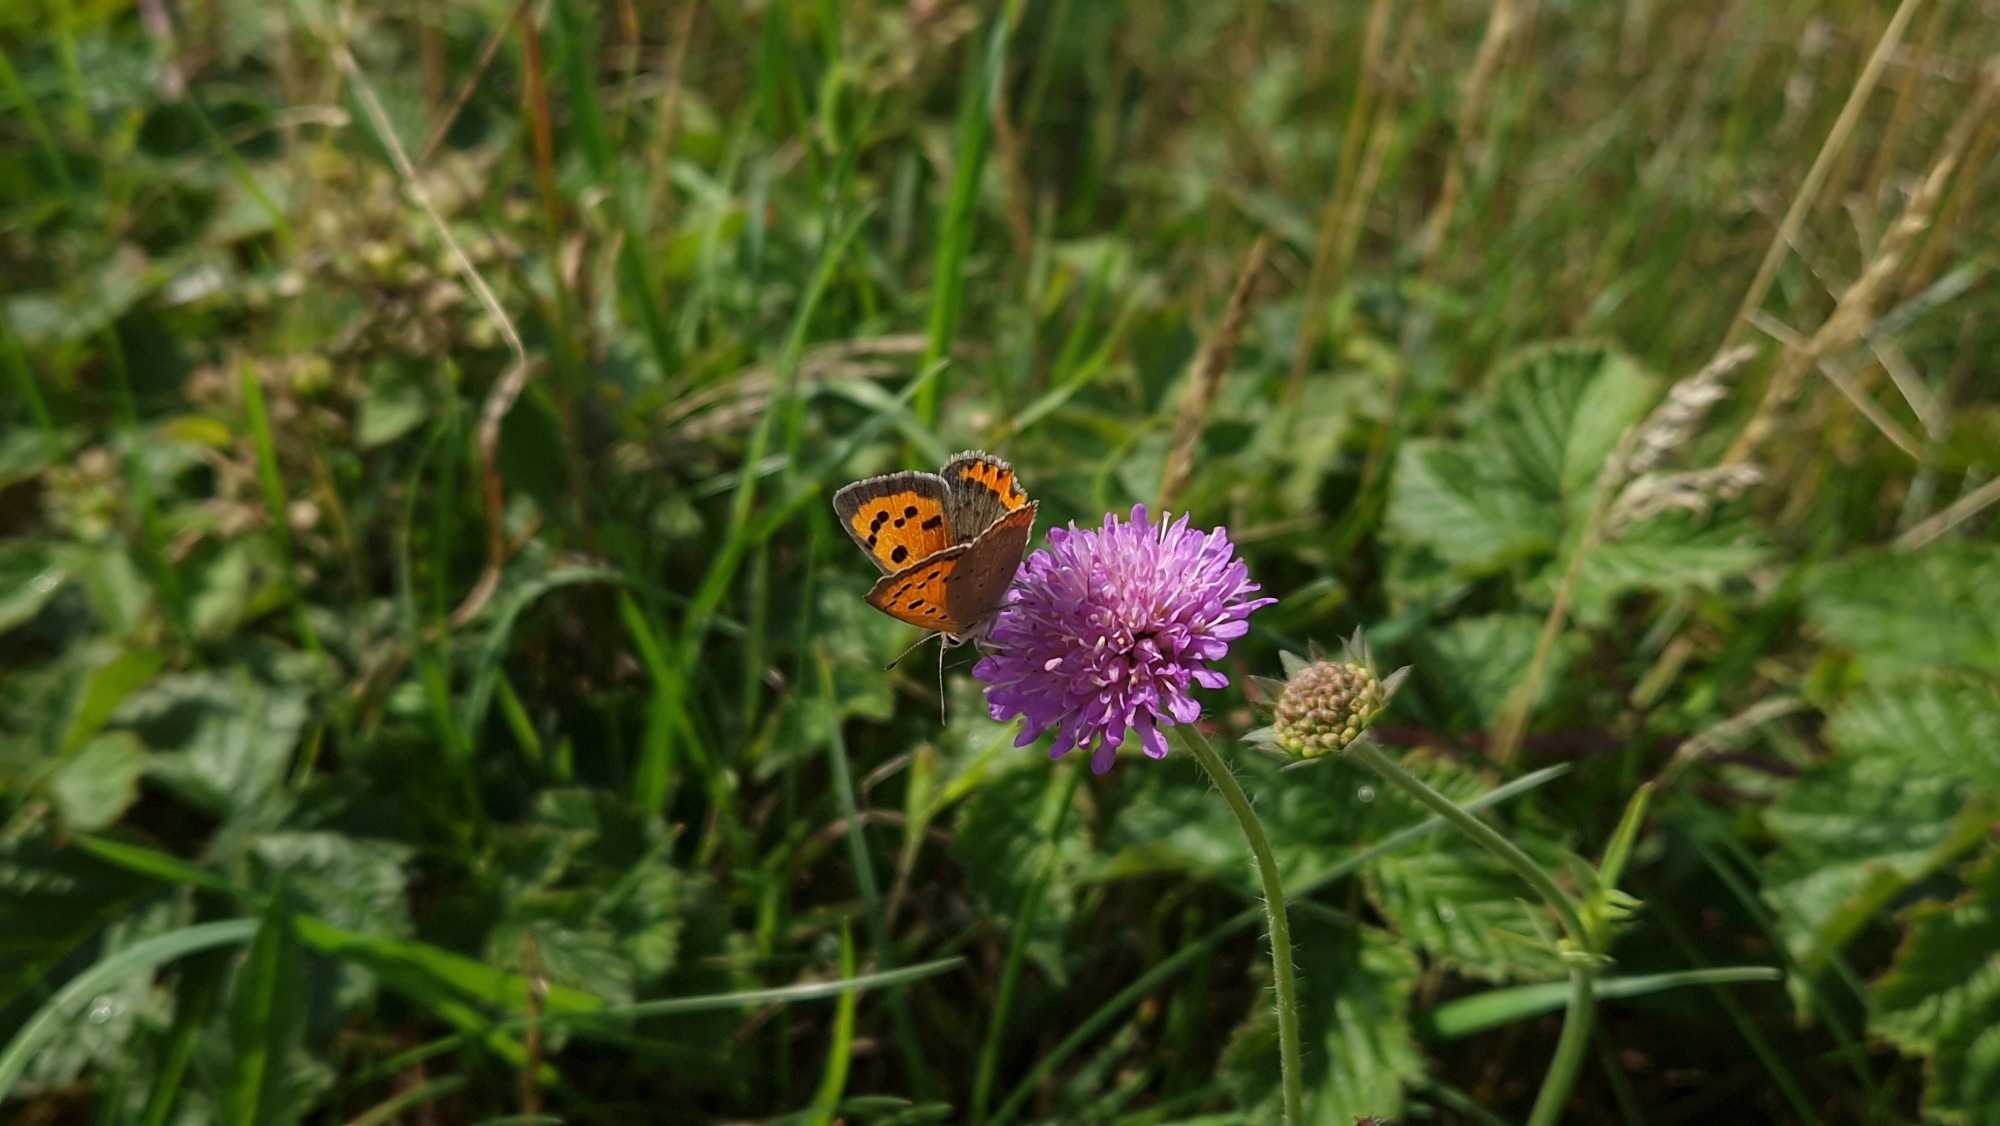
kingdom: Animalia
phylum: Arthropoda
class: Insecta
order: Lepidoptera
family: Lycaenidae
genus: Lycaena
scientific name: Lycaena phlaeas
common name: Lille ildfugl
